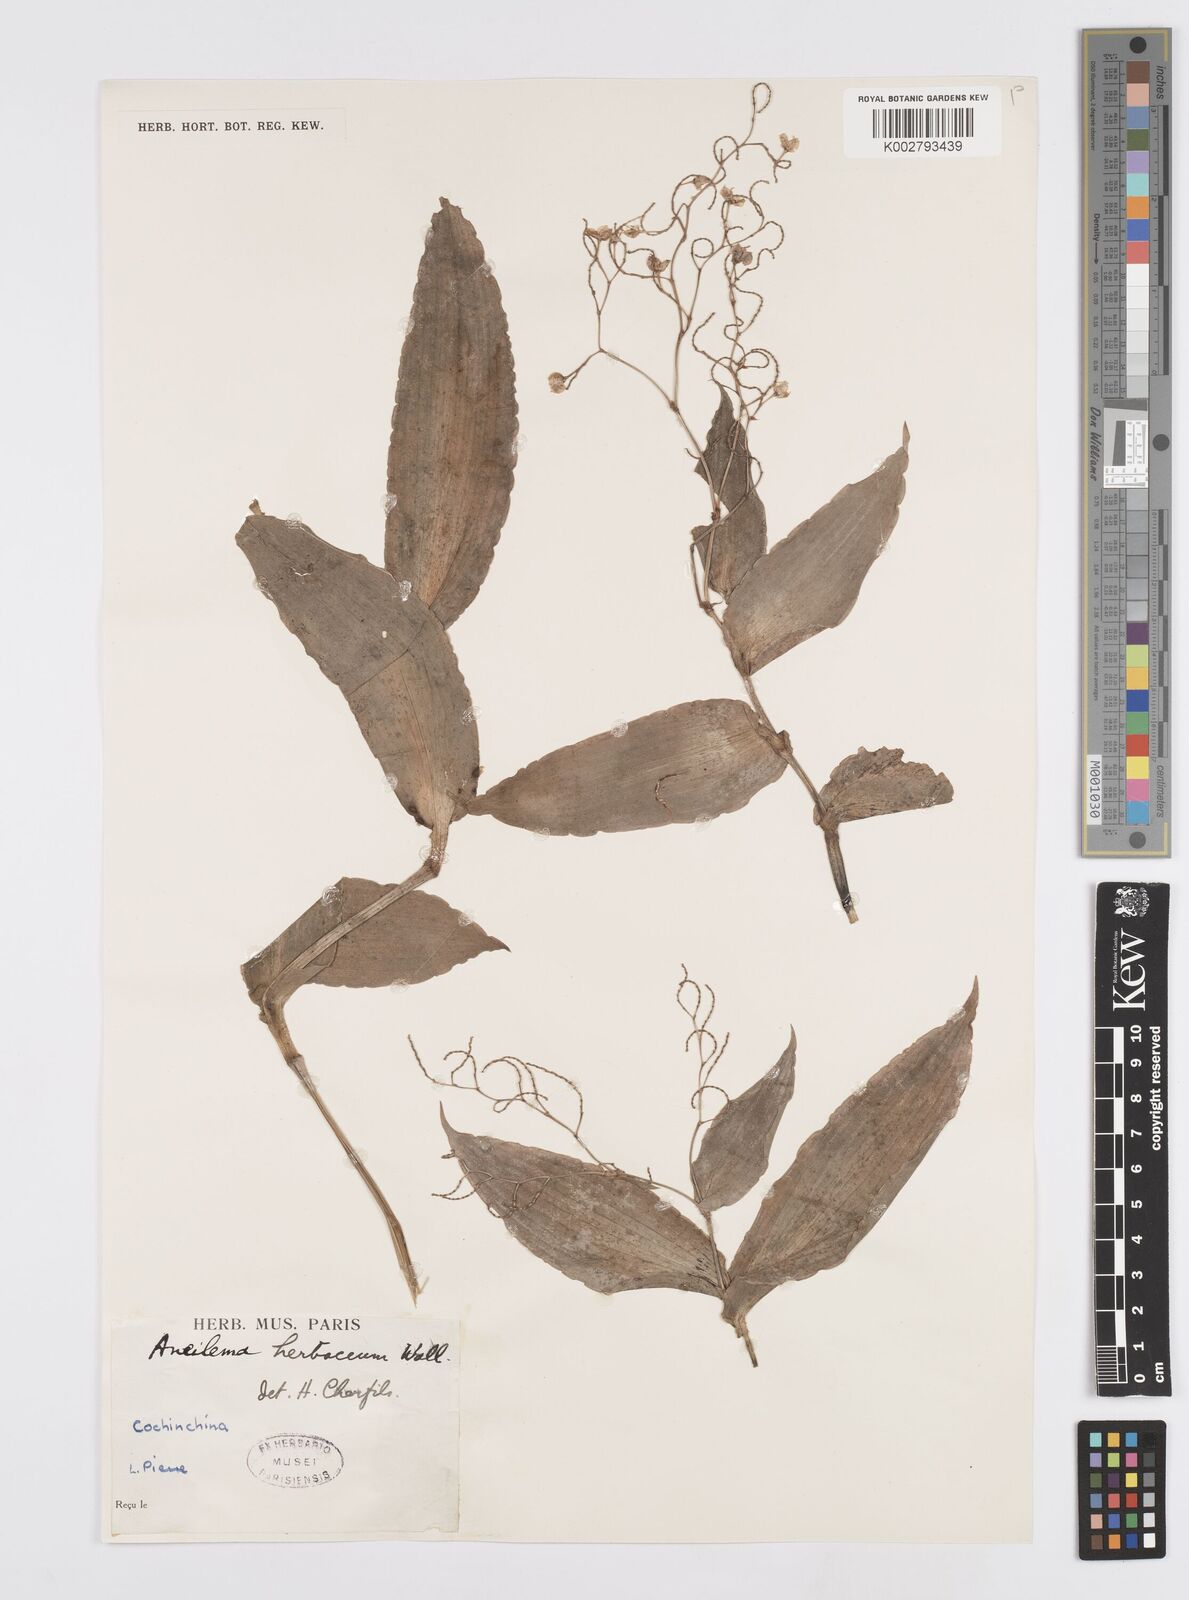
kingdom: Plantae
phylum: Tracheophyta
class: Liliopsida
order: Commelinales
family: Commelinaceae
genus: Murdannia
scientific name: Murdannia
